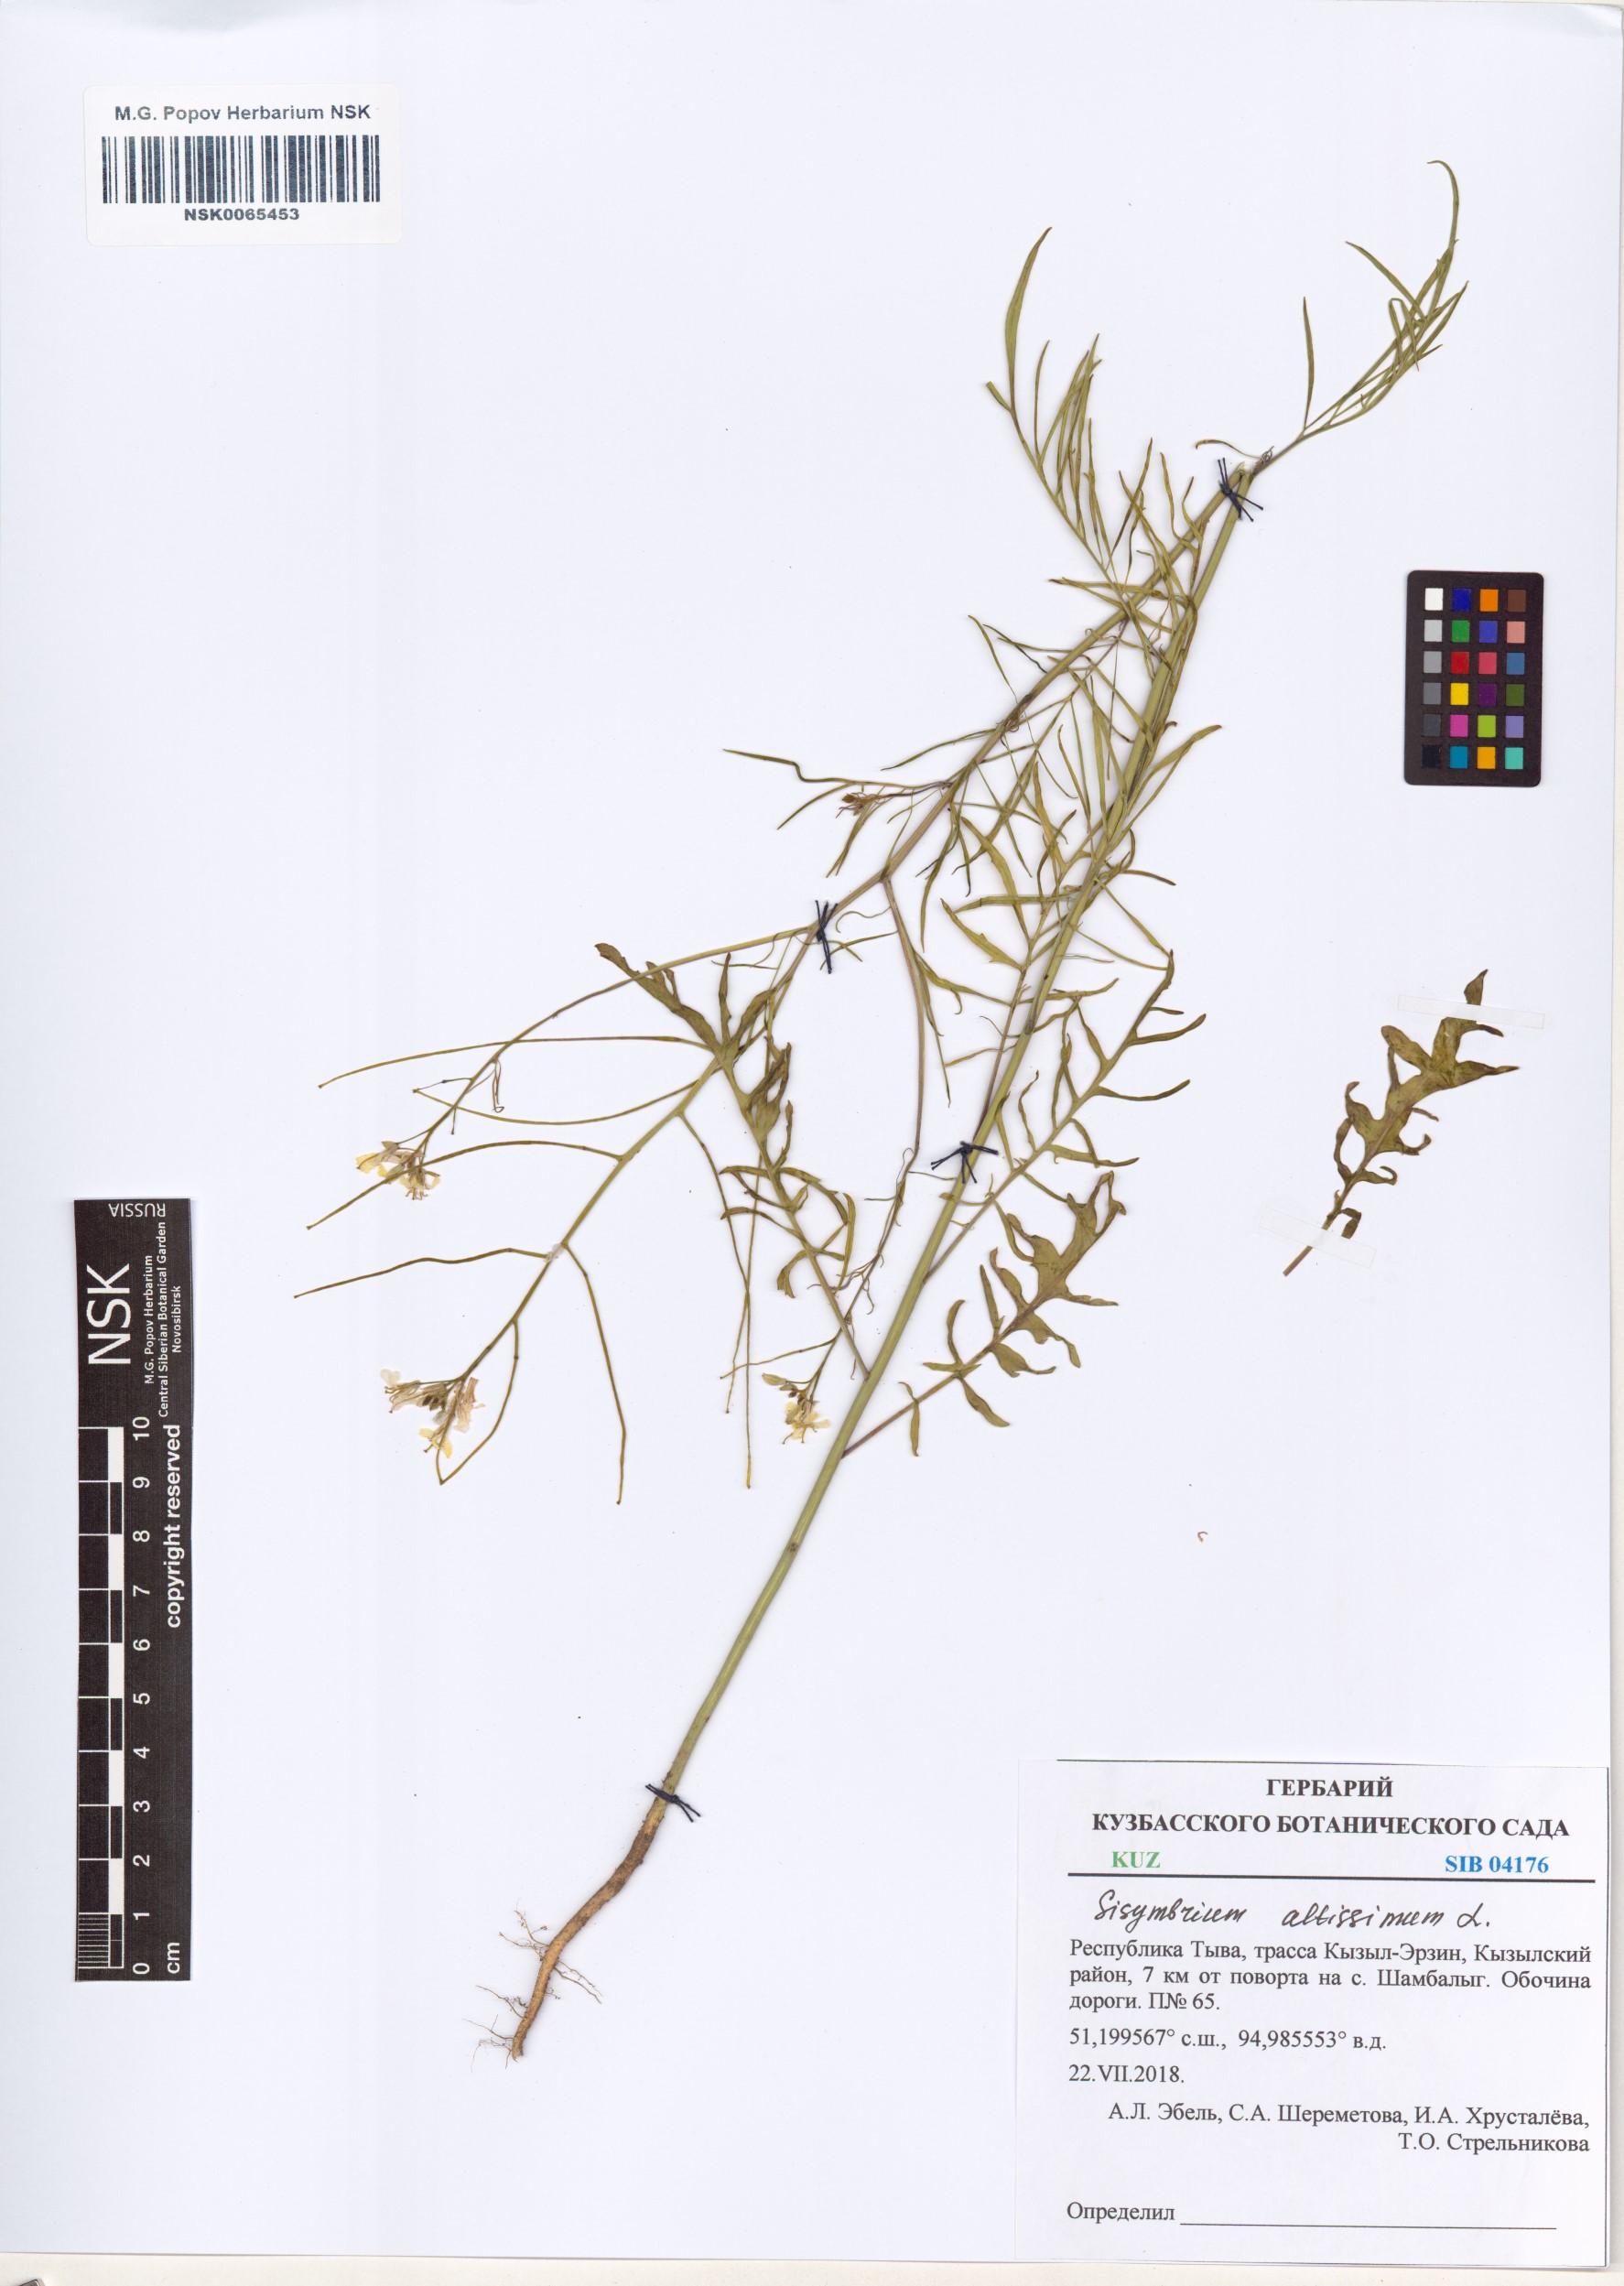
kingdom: Plantae
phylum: Tracheophyta
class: Magnoliopsida
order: Brassicales
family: Brassicaceae
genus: Sisymbrium
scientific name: Sisymbrium altissimum
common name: Tall rocket
